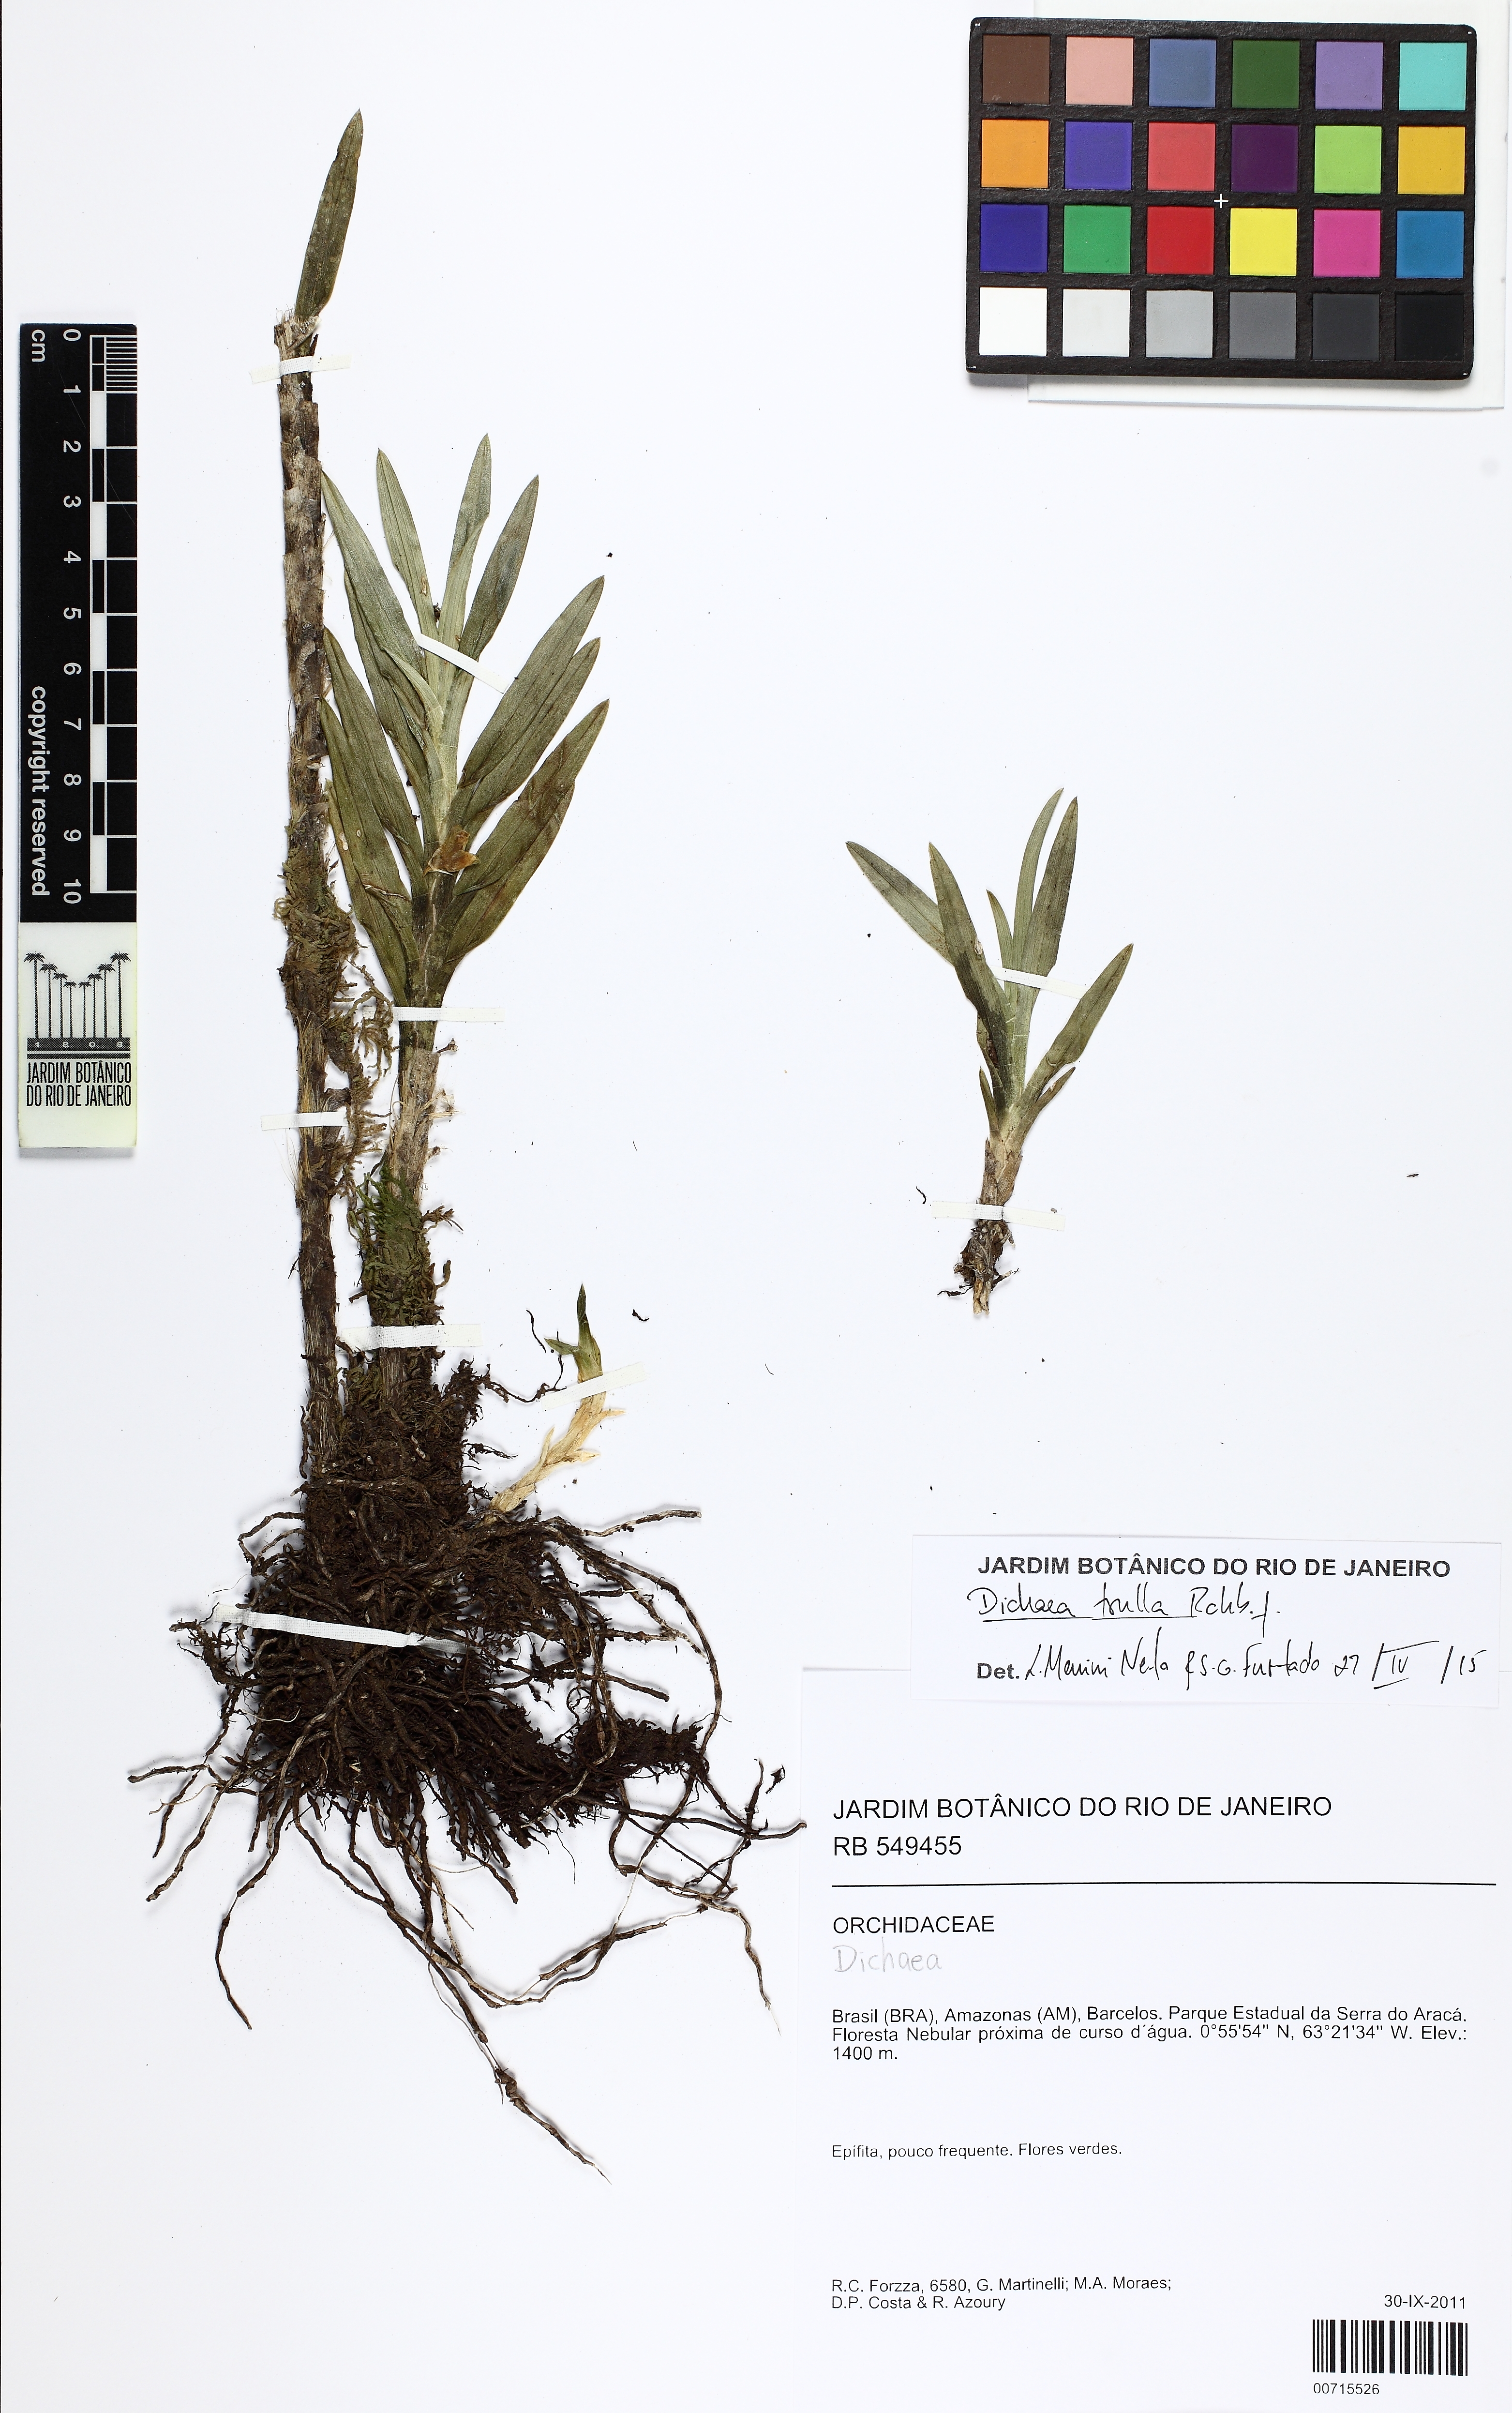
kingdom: Plantae
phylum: Tracheophyta
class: Liliopsida
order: Asparagales
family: Orchidaceae
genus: Dichaea
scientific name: Dichaea trulla
